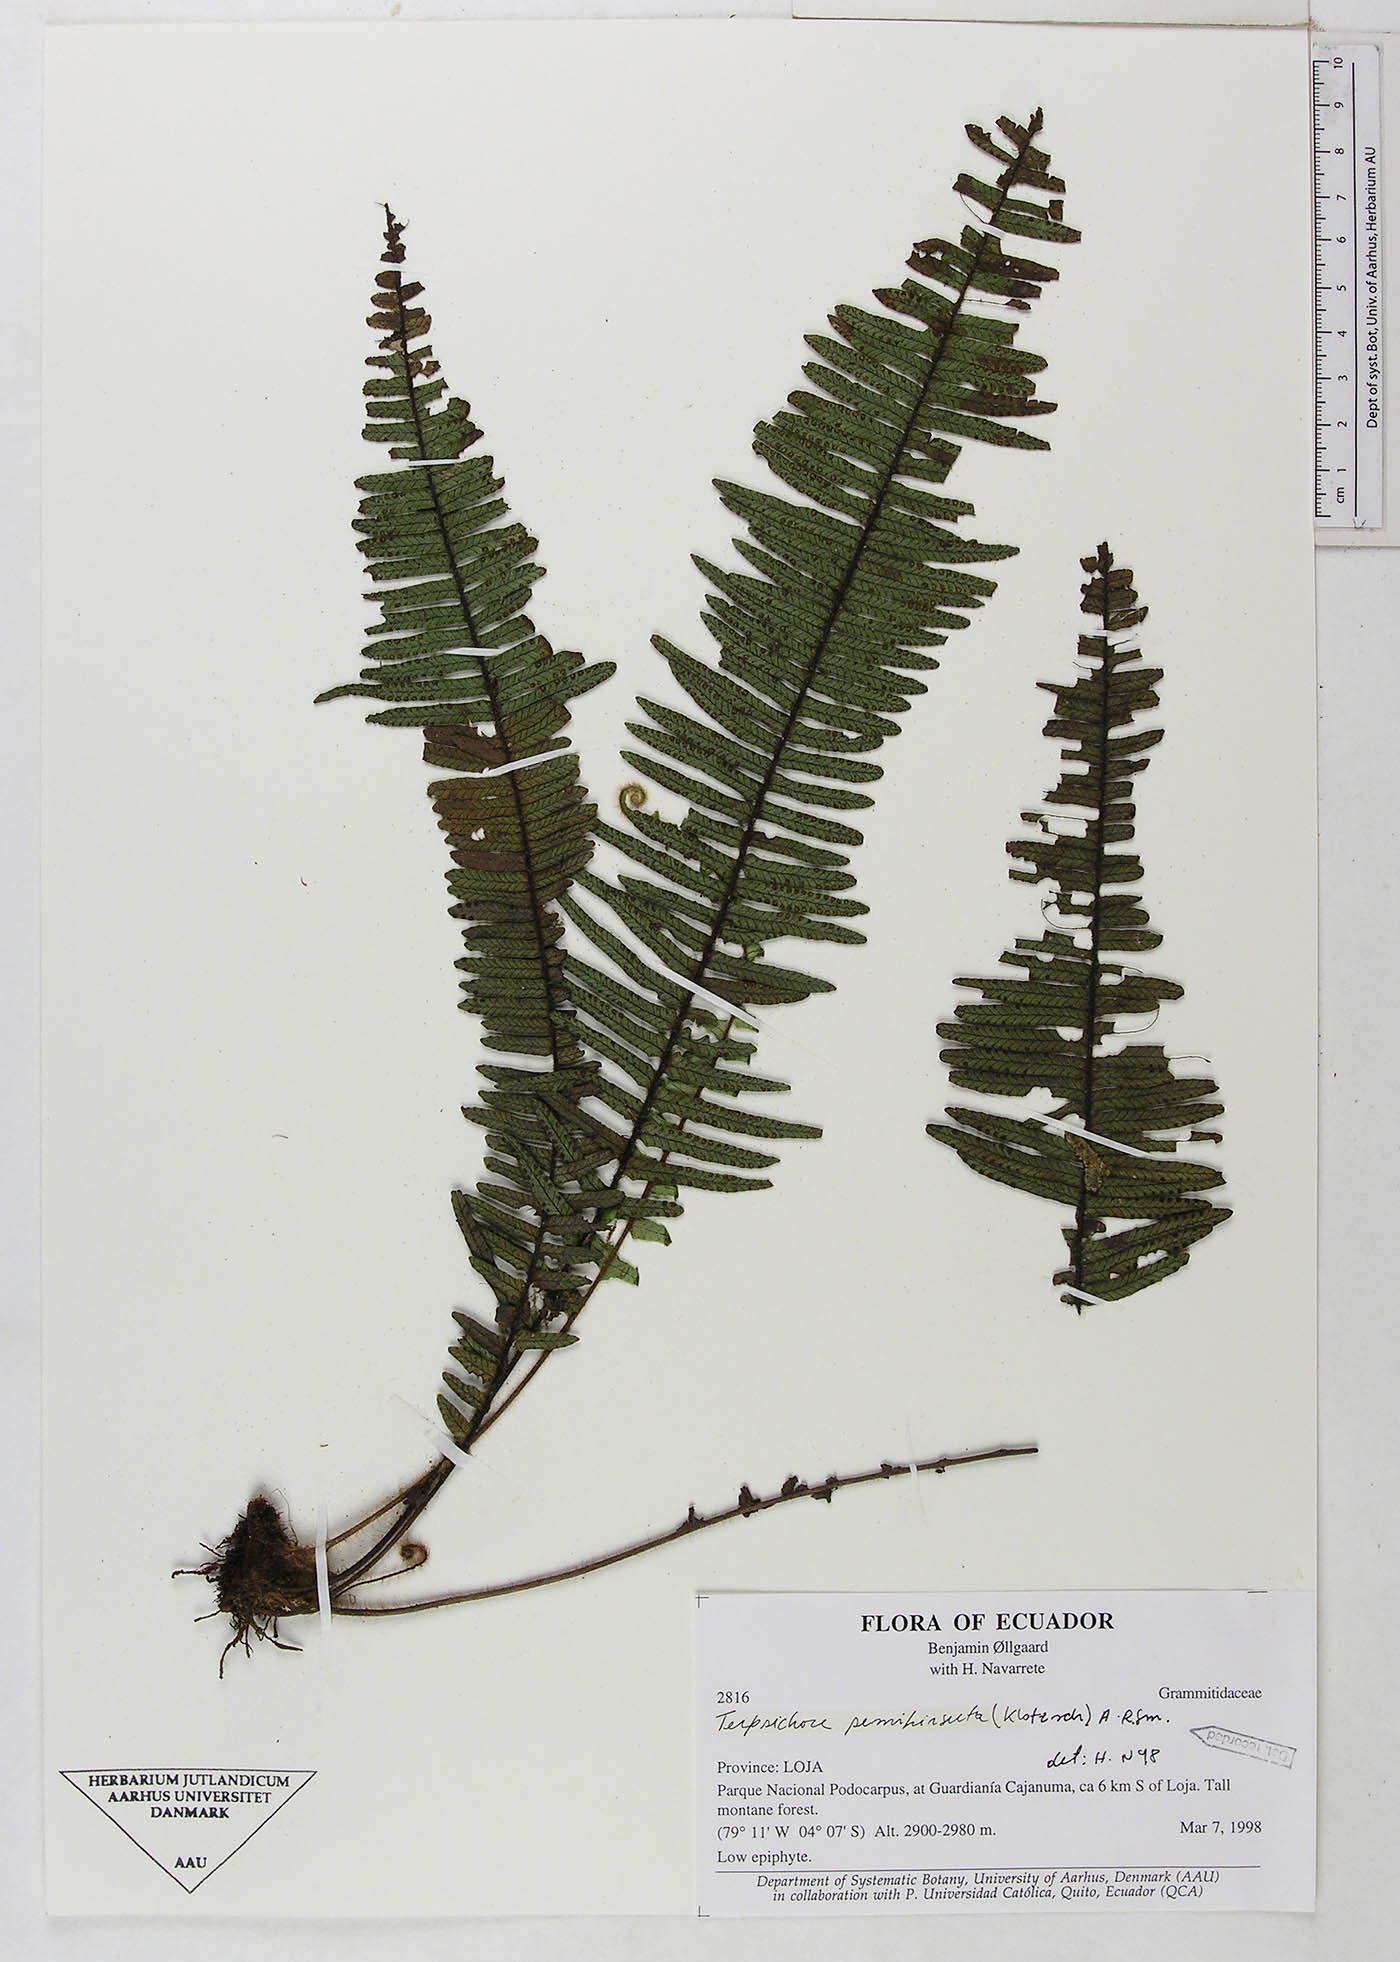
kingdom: Plantae
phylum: Tracheophyta
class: Polypodiopsida
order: Polypodiales
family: Polypodiaceae
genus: Mycopteris
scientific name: Mycopteris semihirsuta
